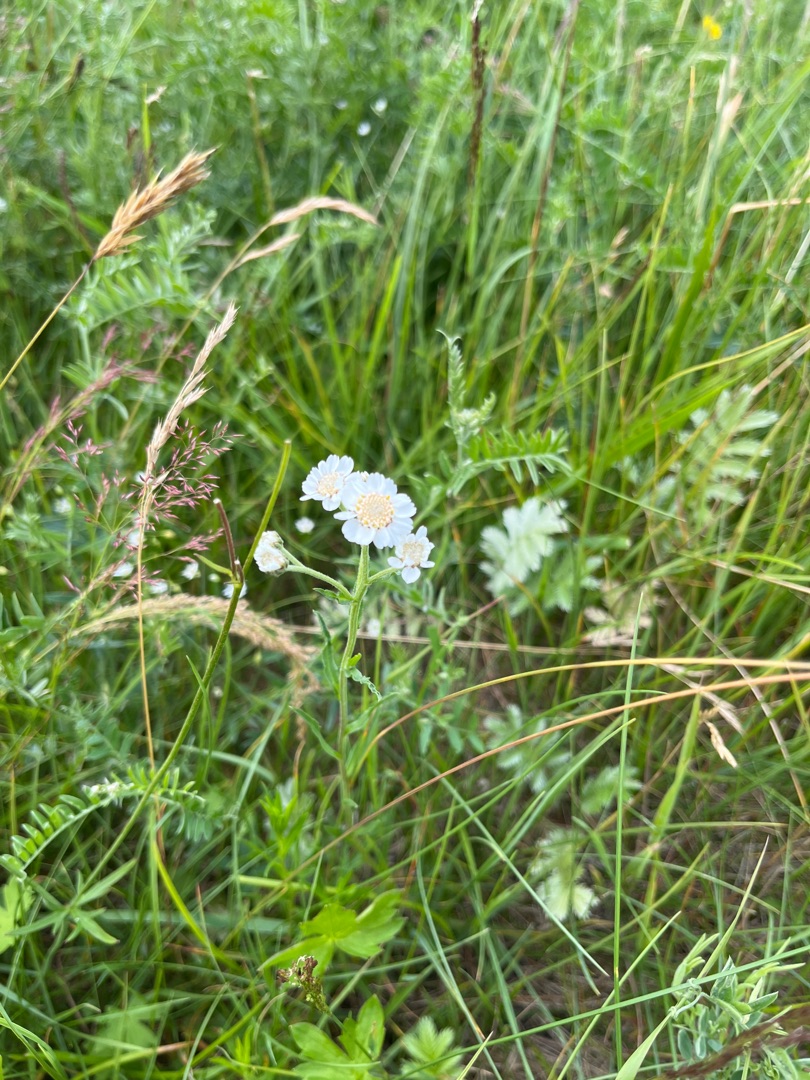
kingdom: Plantae
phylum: Tracheophyta
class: Magnoliopsida
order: Asterales
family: Asteraceae
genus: Achillea
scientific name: Achillea ptarmica
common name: Nyse-røllike
